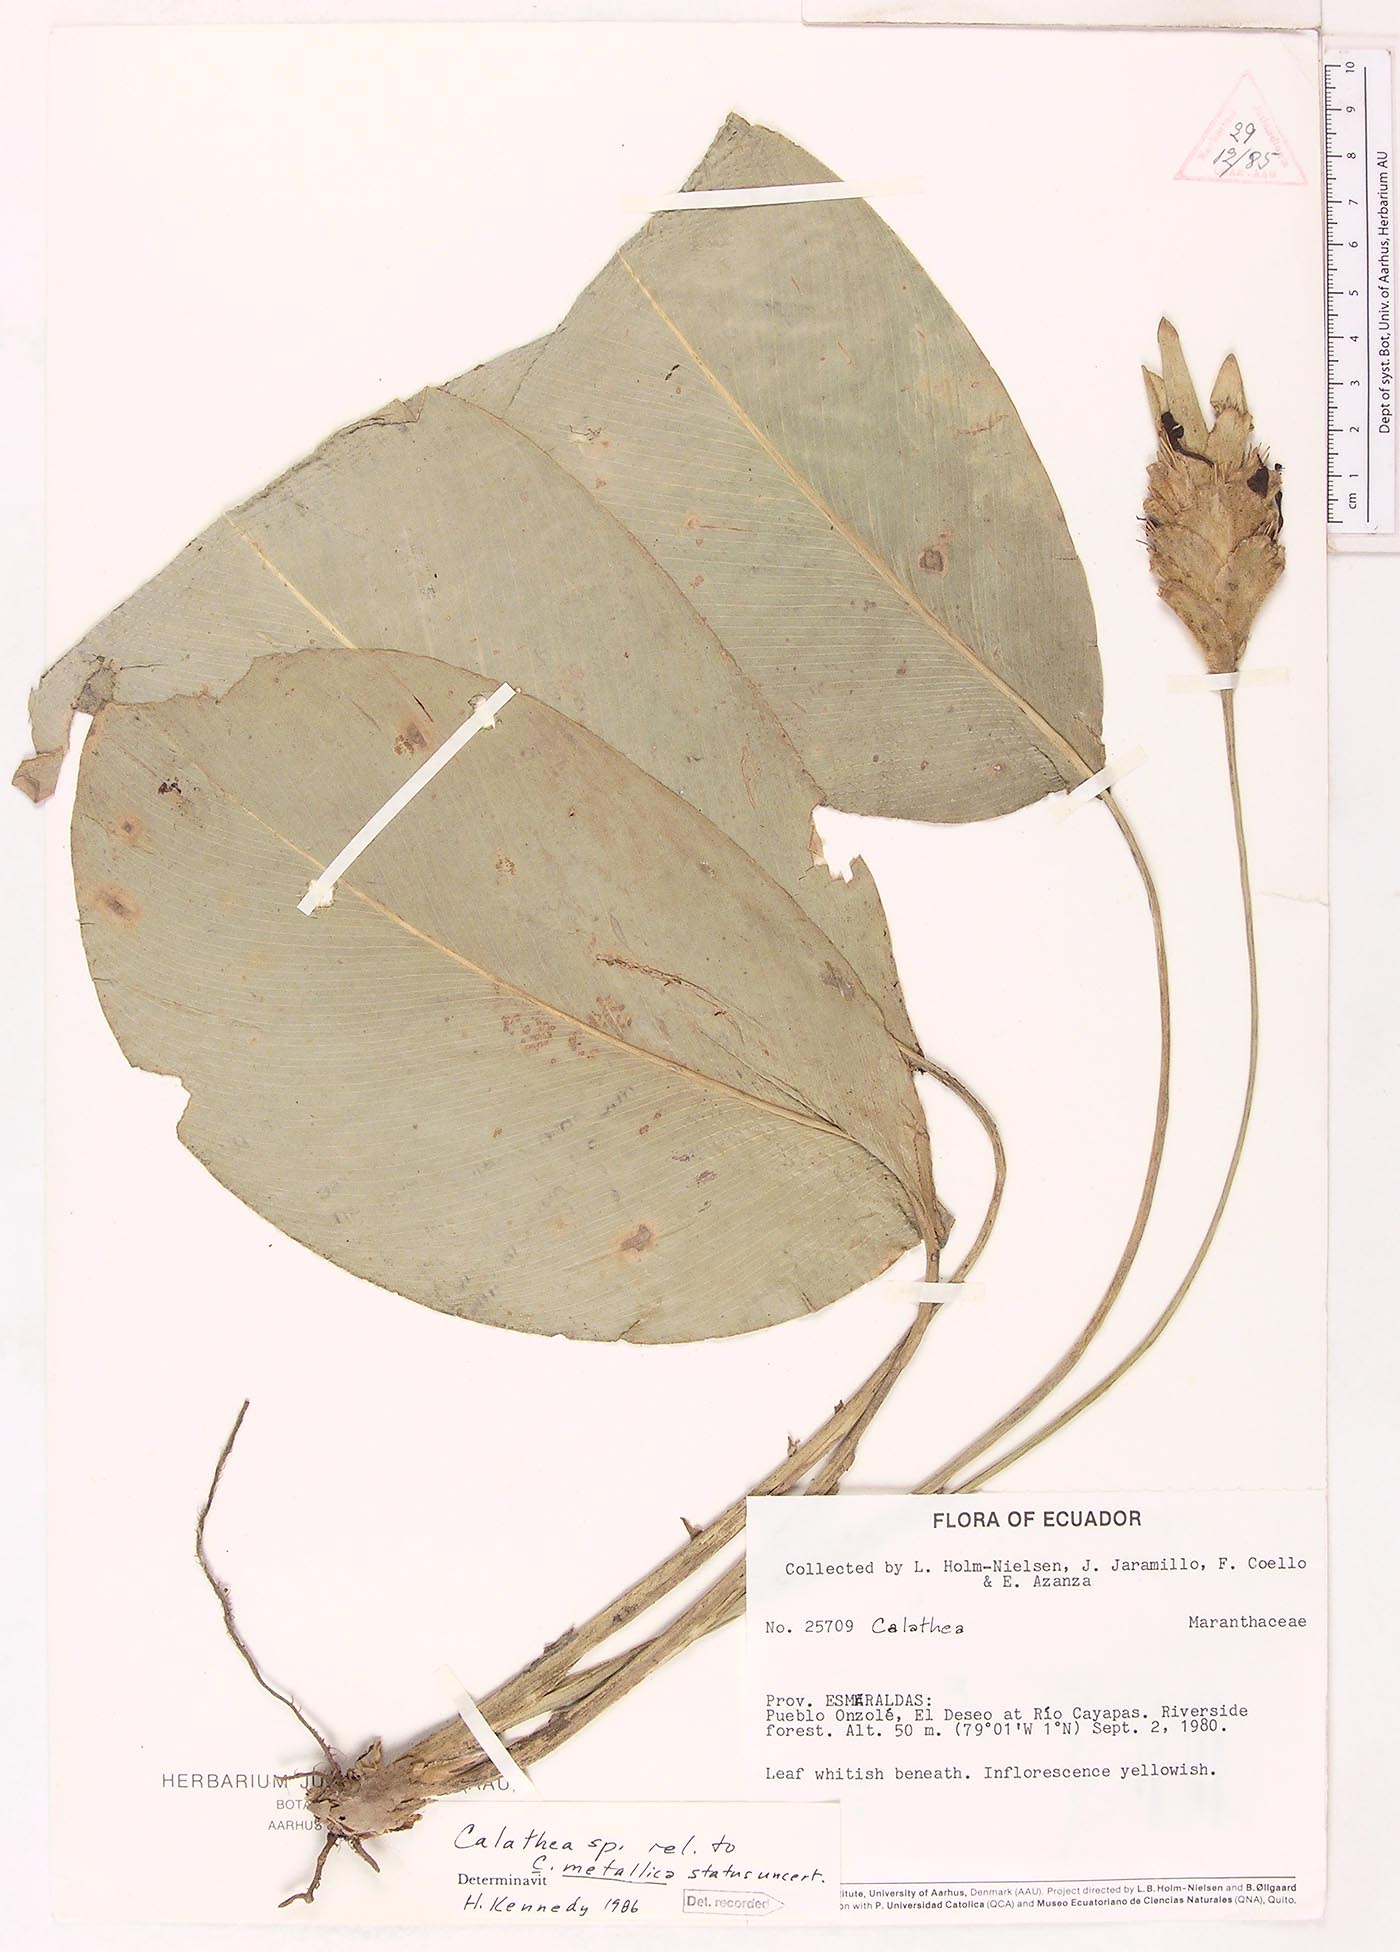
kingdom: Plantae
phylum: Tracheophyta
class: Magnoliopsida
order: Laurales
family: Lauraceae
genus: Goeppertia
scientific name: Goeppertia
